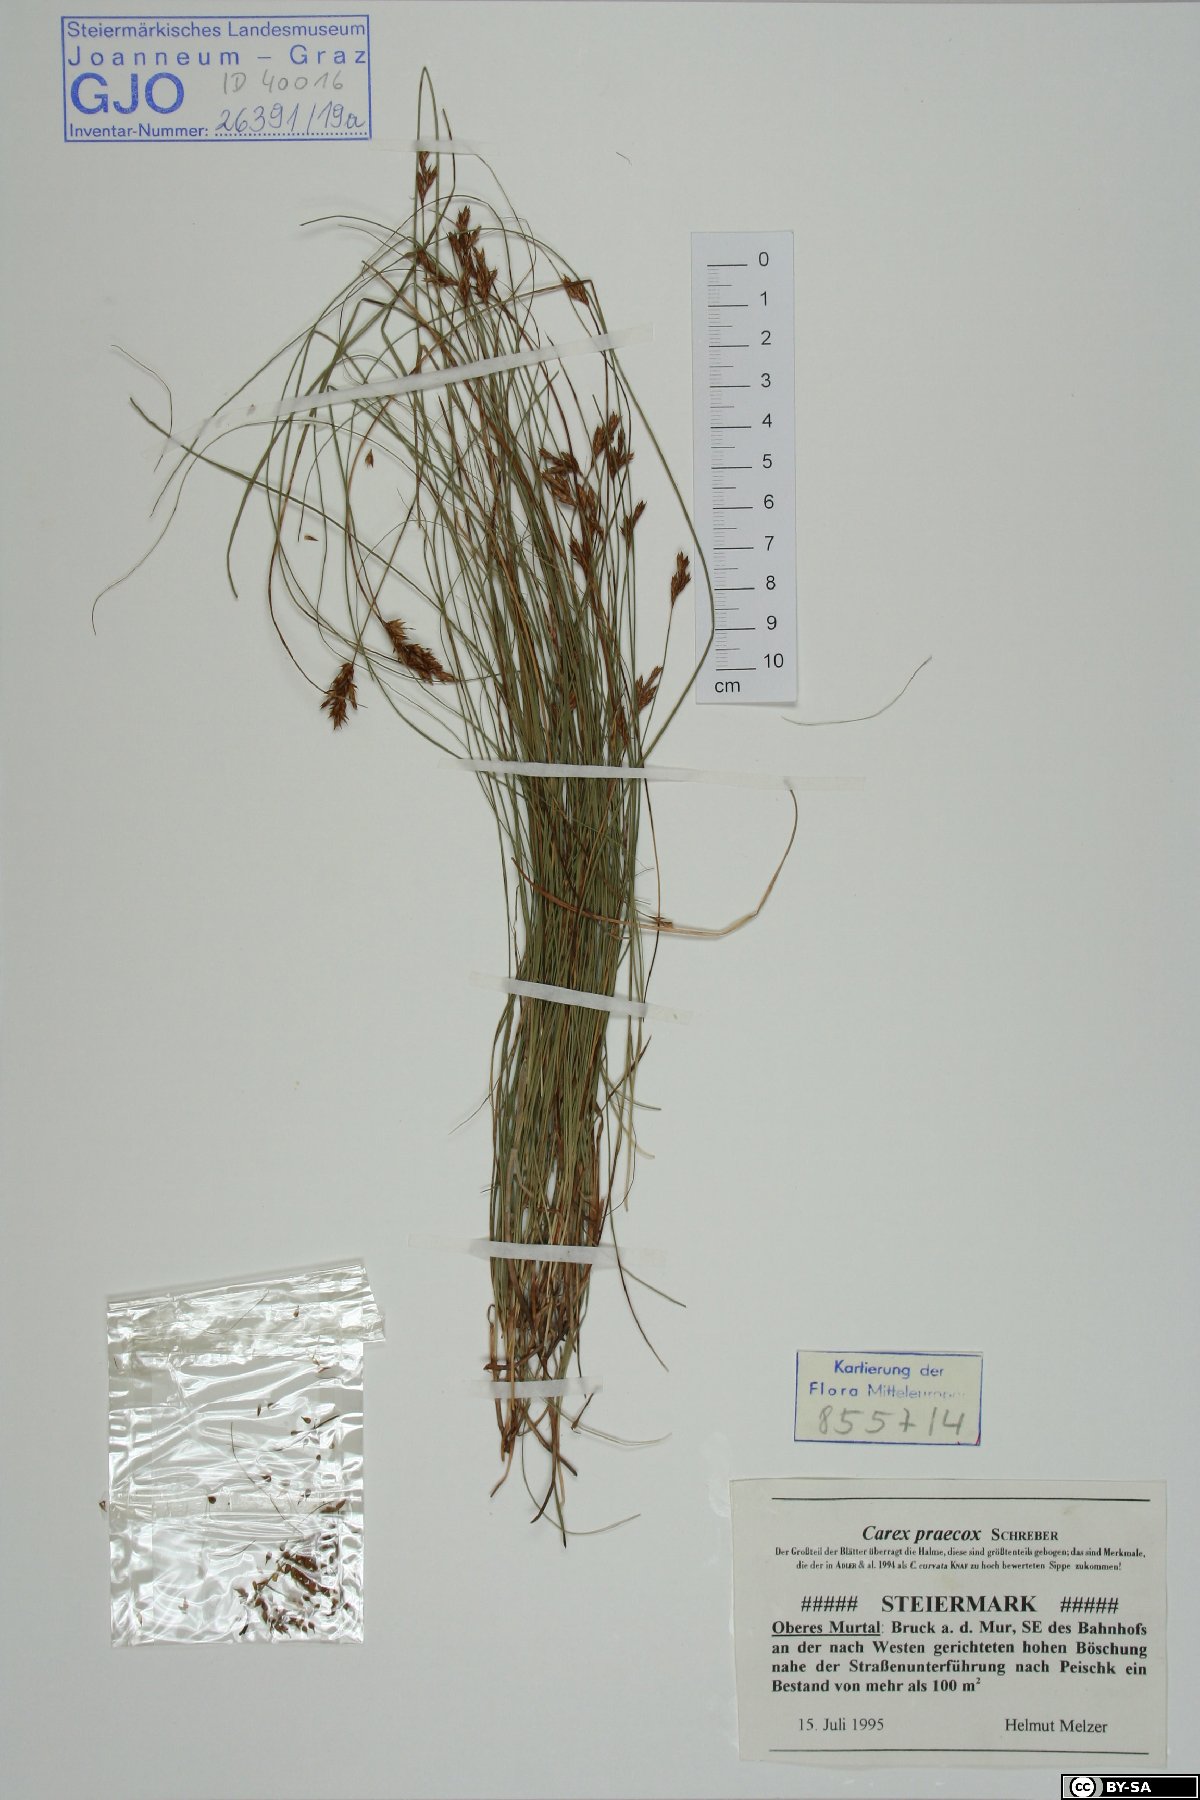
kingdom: Plantae
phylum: Tracheophyta
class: Liliopsida
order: Poales
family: Cyperaceae
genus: Carex
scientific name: Carex praecox
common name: Early sedge
